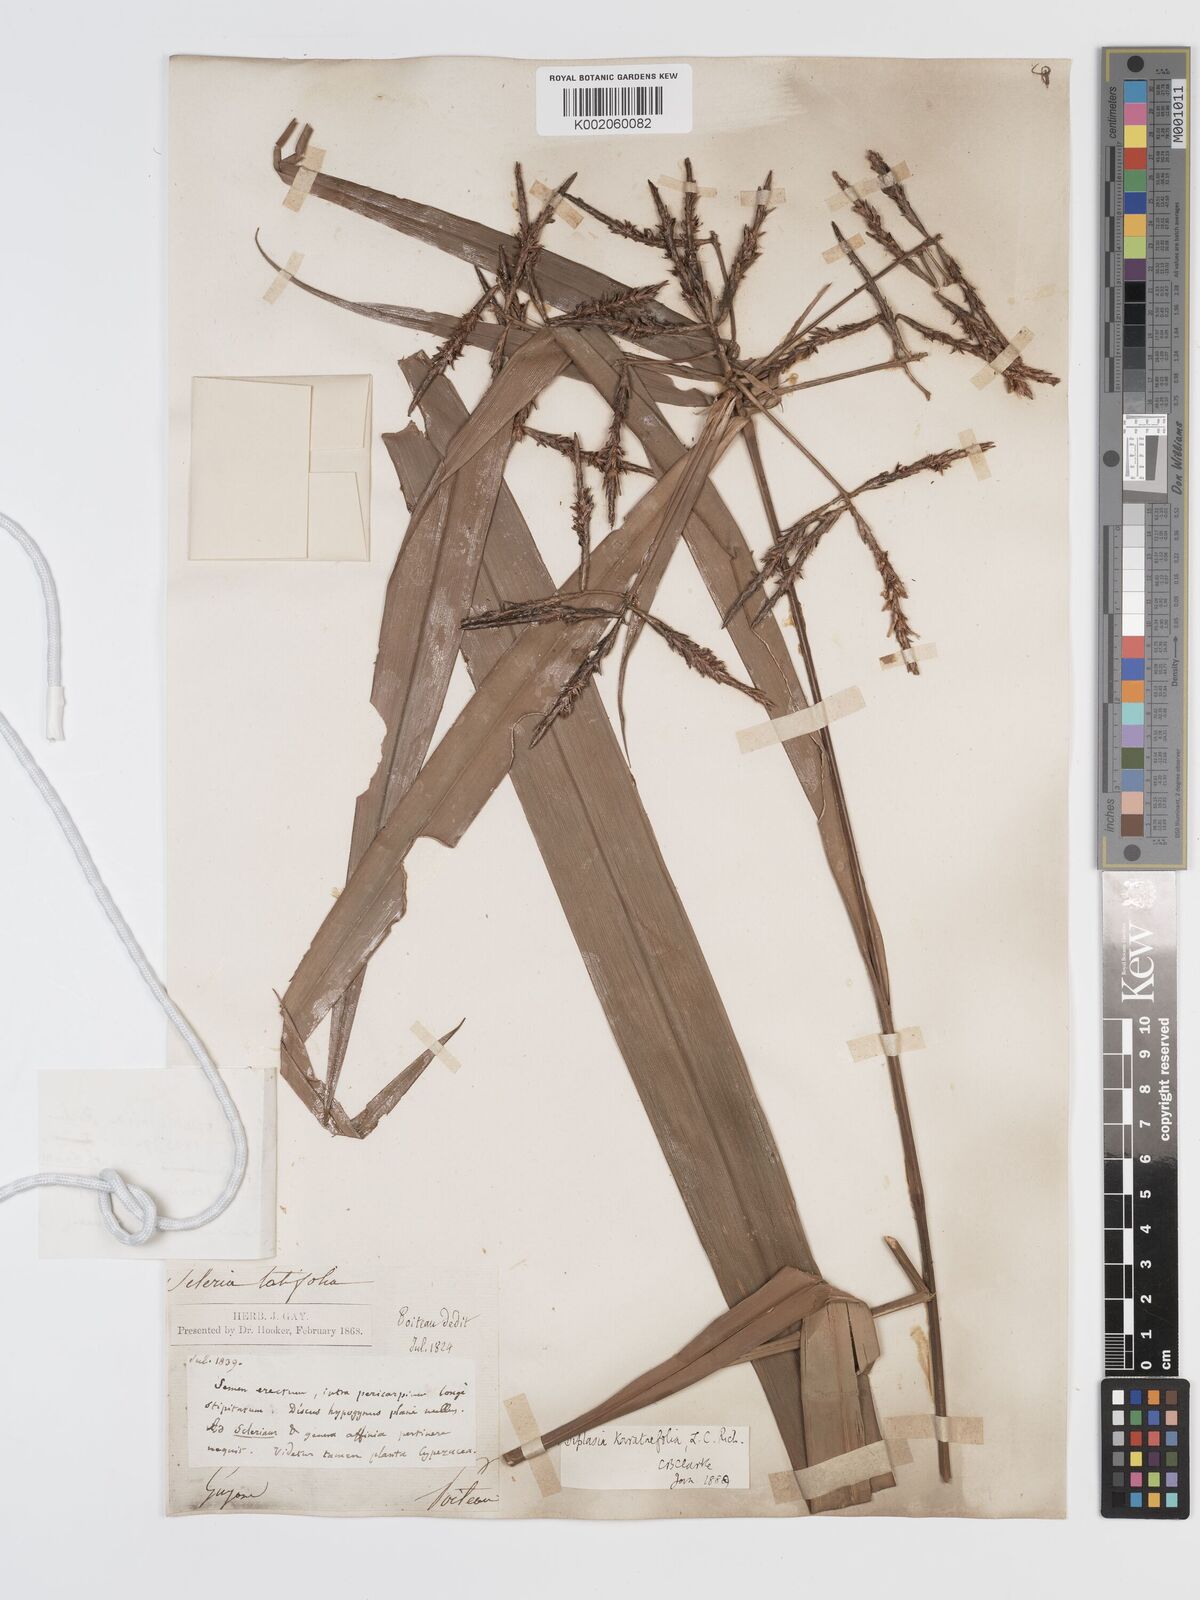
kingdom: Plantae
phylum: Tracheophyta
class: Liliopsida
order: Poales
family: Cyperaceae
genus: Diplasia
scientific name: Diplasia karatifolia
